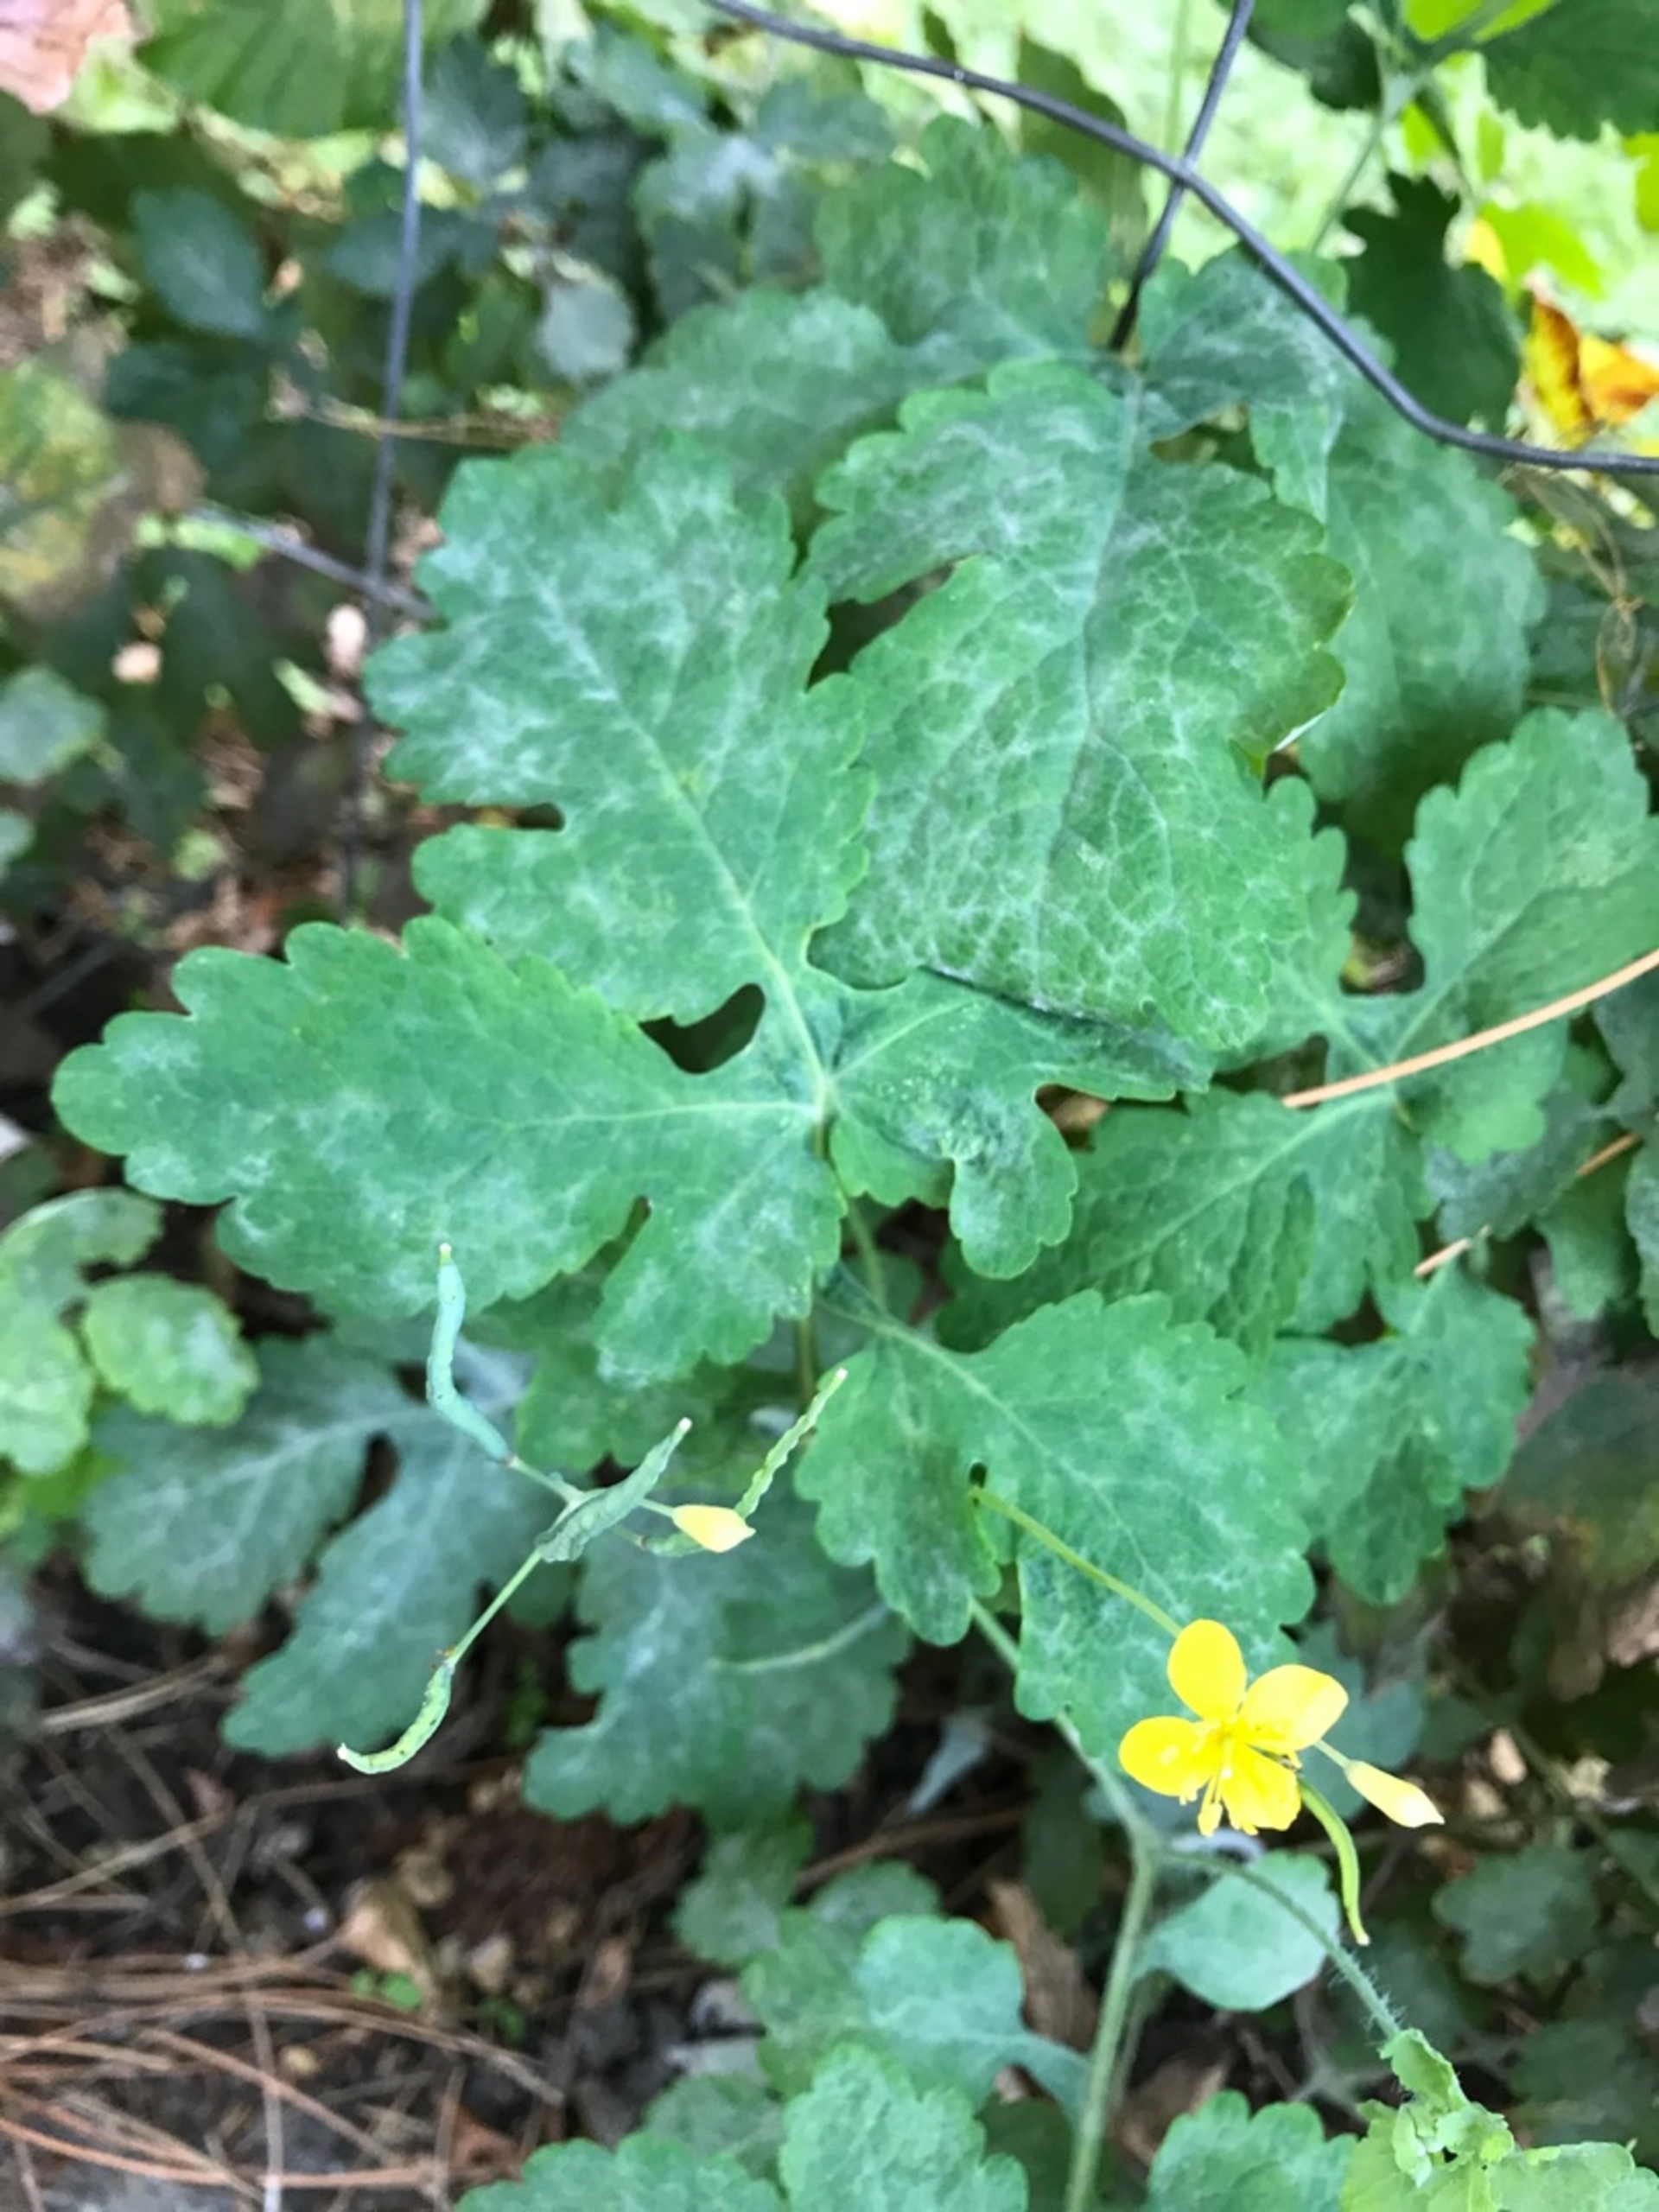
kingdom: Plantae
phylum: Tracheophyta
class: Magnoliopsida
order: Ranunculales
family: Papaveraceae
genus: Chelidonium
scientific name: Chelidonium majus
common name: Svaleurt
